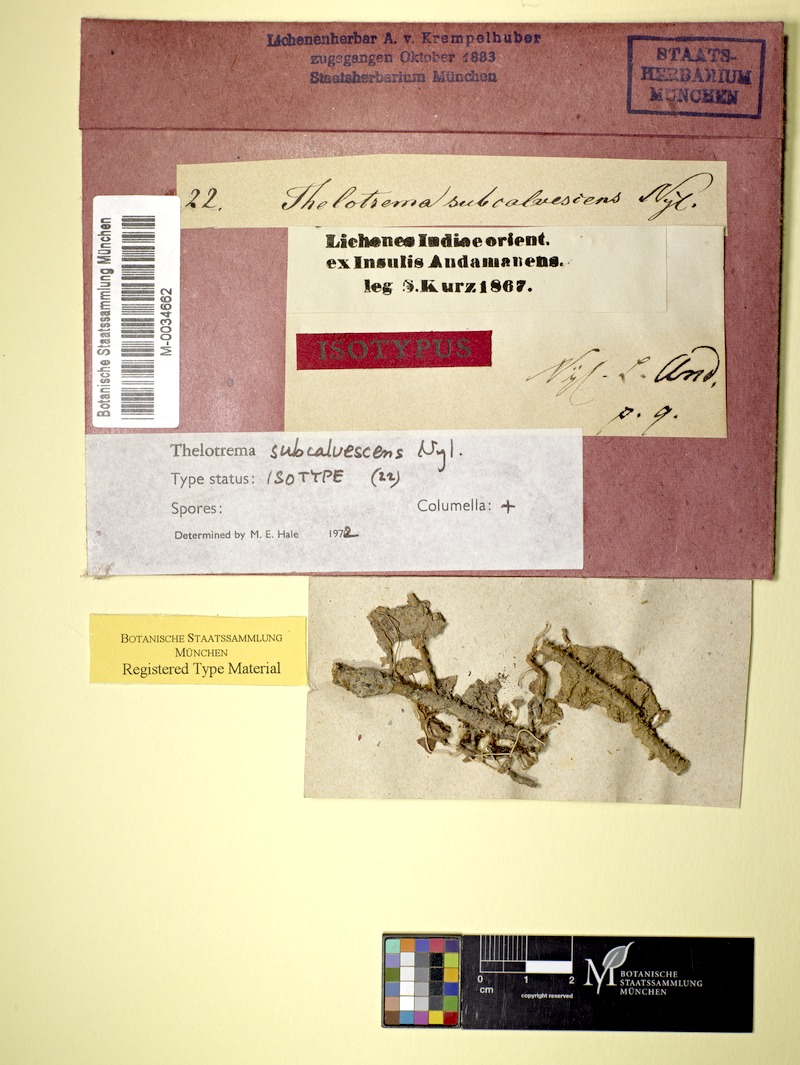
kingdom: Fungi
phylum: Ascomycota
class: Lecanoromycetes
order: Ostropales
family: Graphidaceae
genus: Ocellularia
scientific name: Ocellularia subcalvescens
